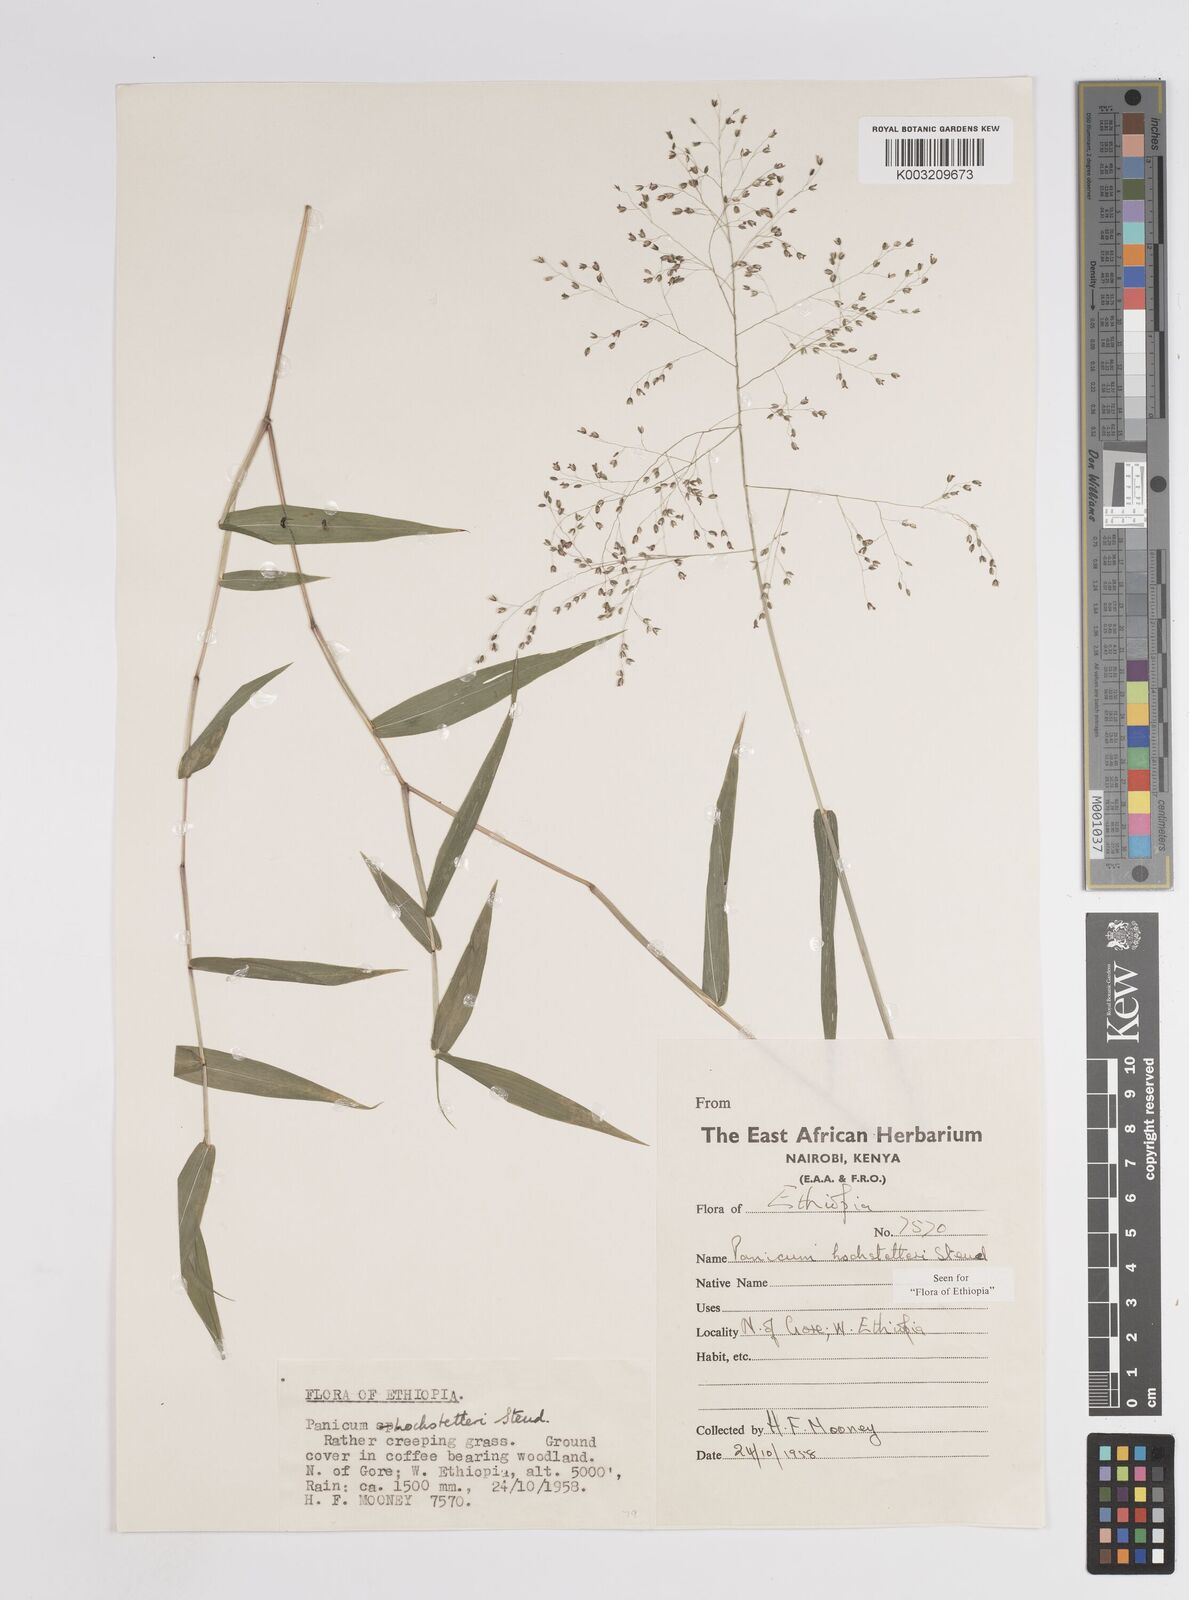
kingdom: Plantae
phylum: Tracheophyta
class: Liliopsida
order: Poales
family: Poaceae
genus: Panicum
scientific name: Panicum hochstetteri
